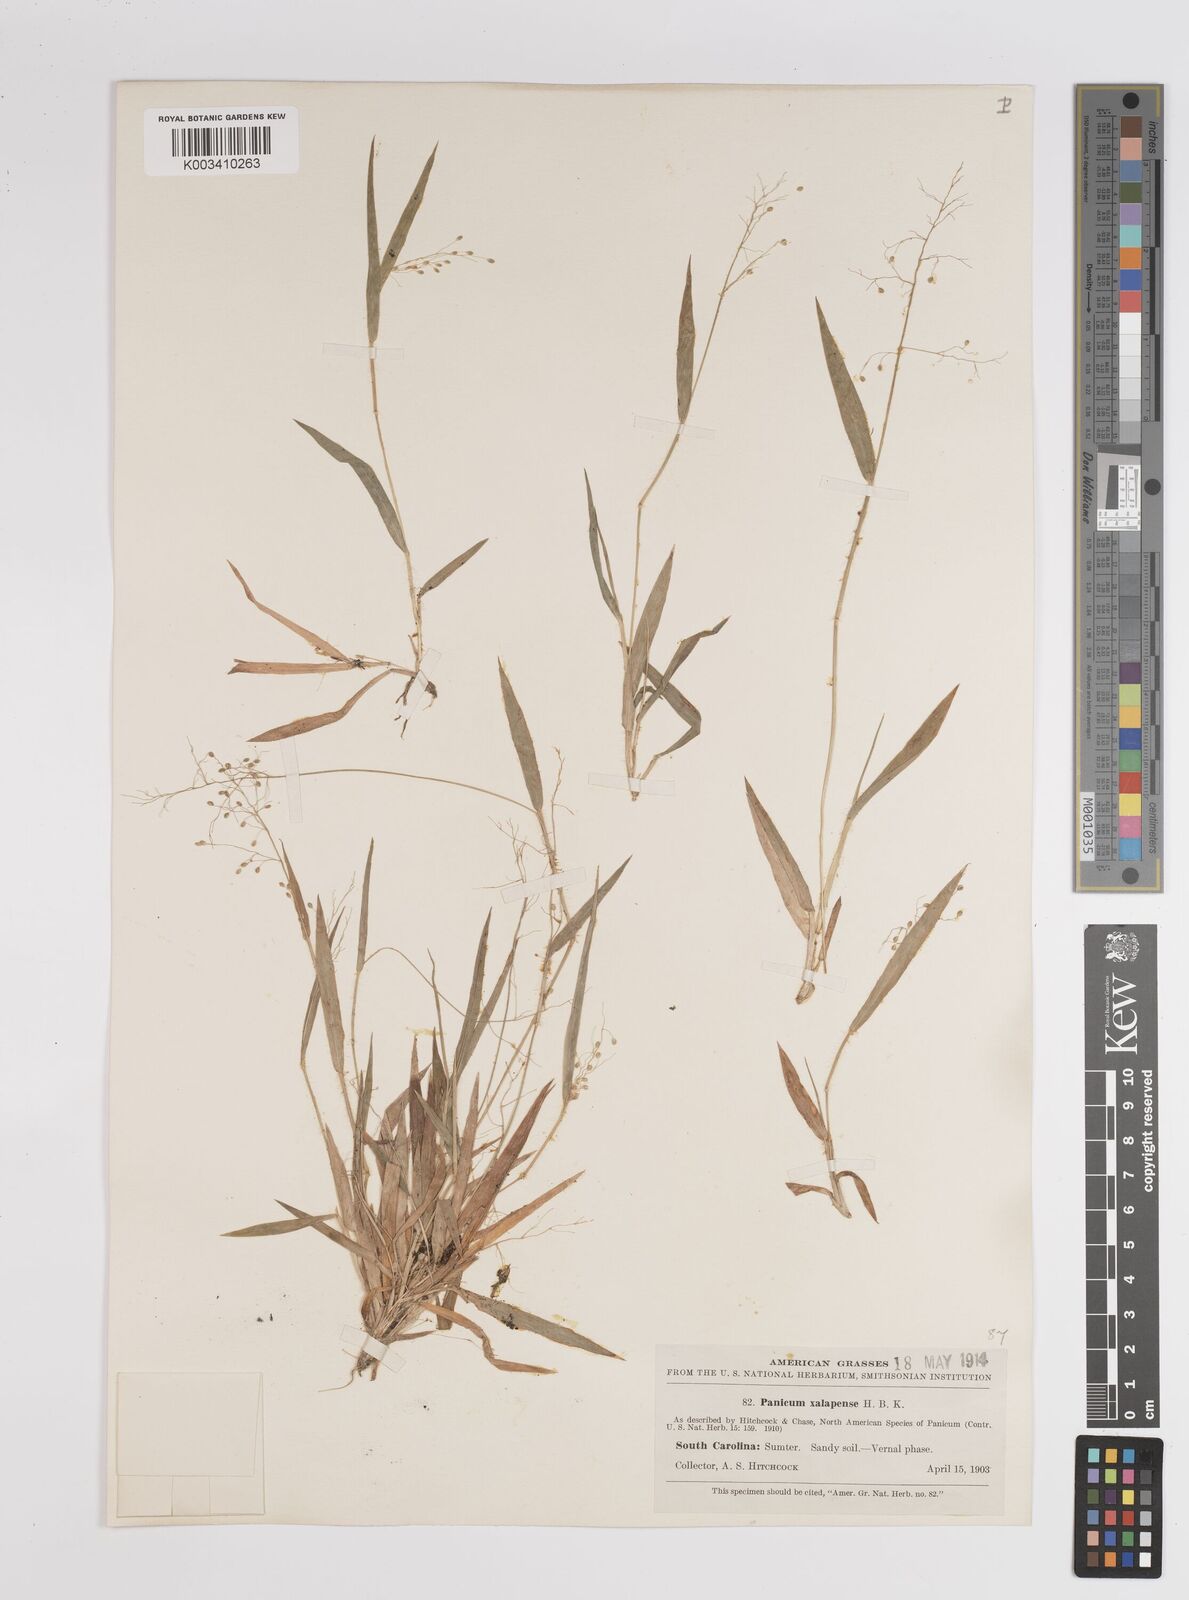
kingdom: Plantae
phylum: Tracheophyta
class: Liliopsida
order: Poales
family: Poaceae
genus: Dichanthelium
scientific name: Dichanthelium laxiflorum
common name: Soft-tuft panic grass
